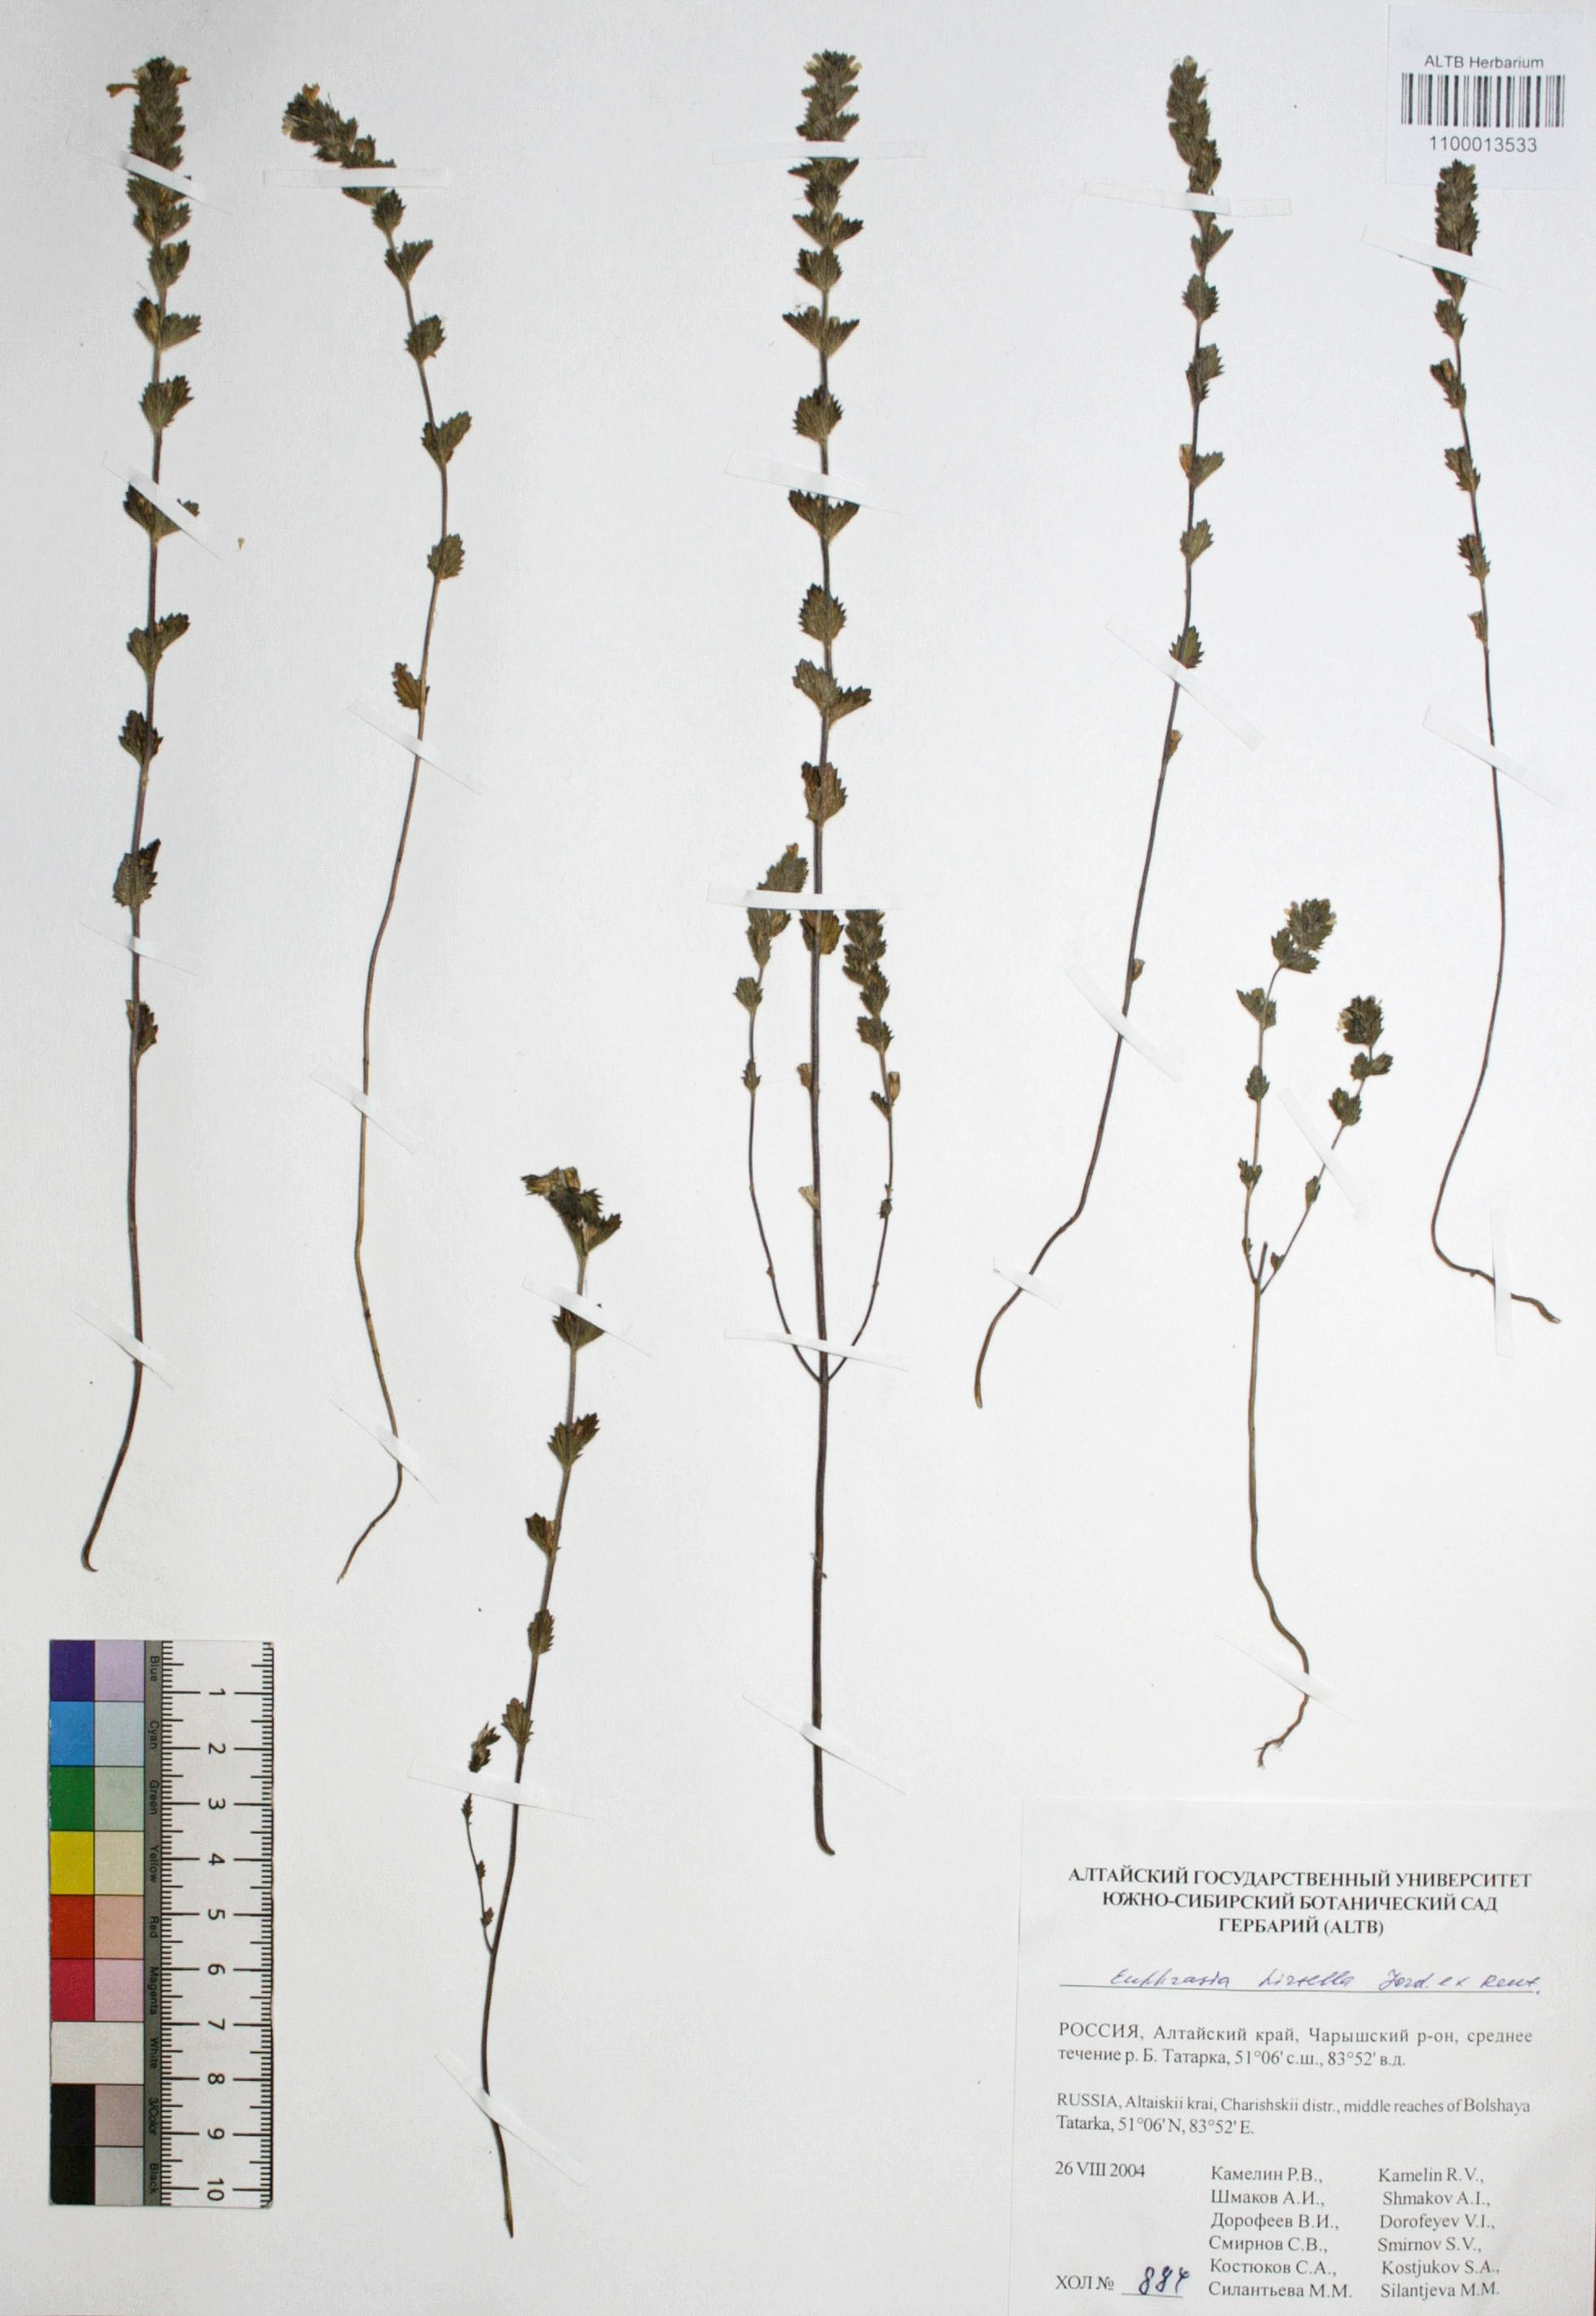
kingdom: Plantae
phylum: Tracheophyta
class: Magnoliopsida
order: Lamiales
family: Orobanchaceae
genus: Euphrasia
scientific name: Euphrasia hirtella
